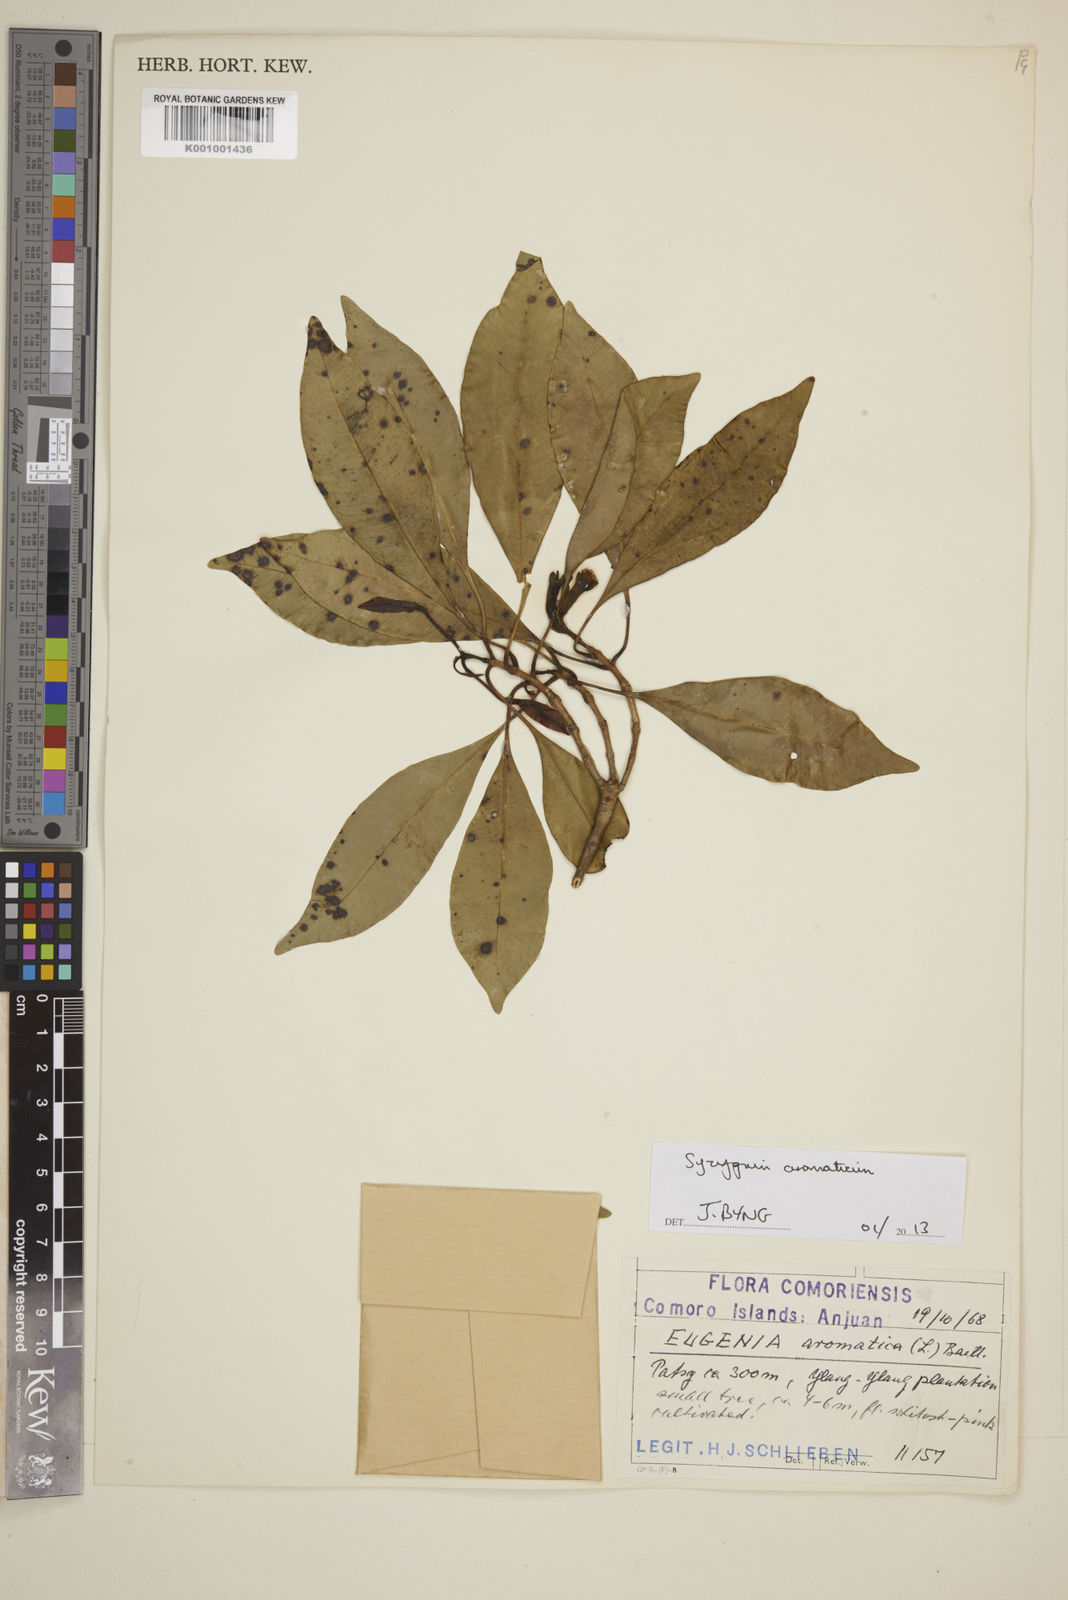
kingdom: Plantae
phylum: Tracheophyta
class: Magnoliopsida
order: Myrtales
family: Myrtaceae
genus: Syzygium
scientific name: Syzygium jambos
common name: Malabar plum
